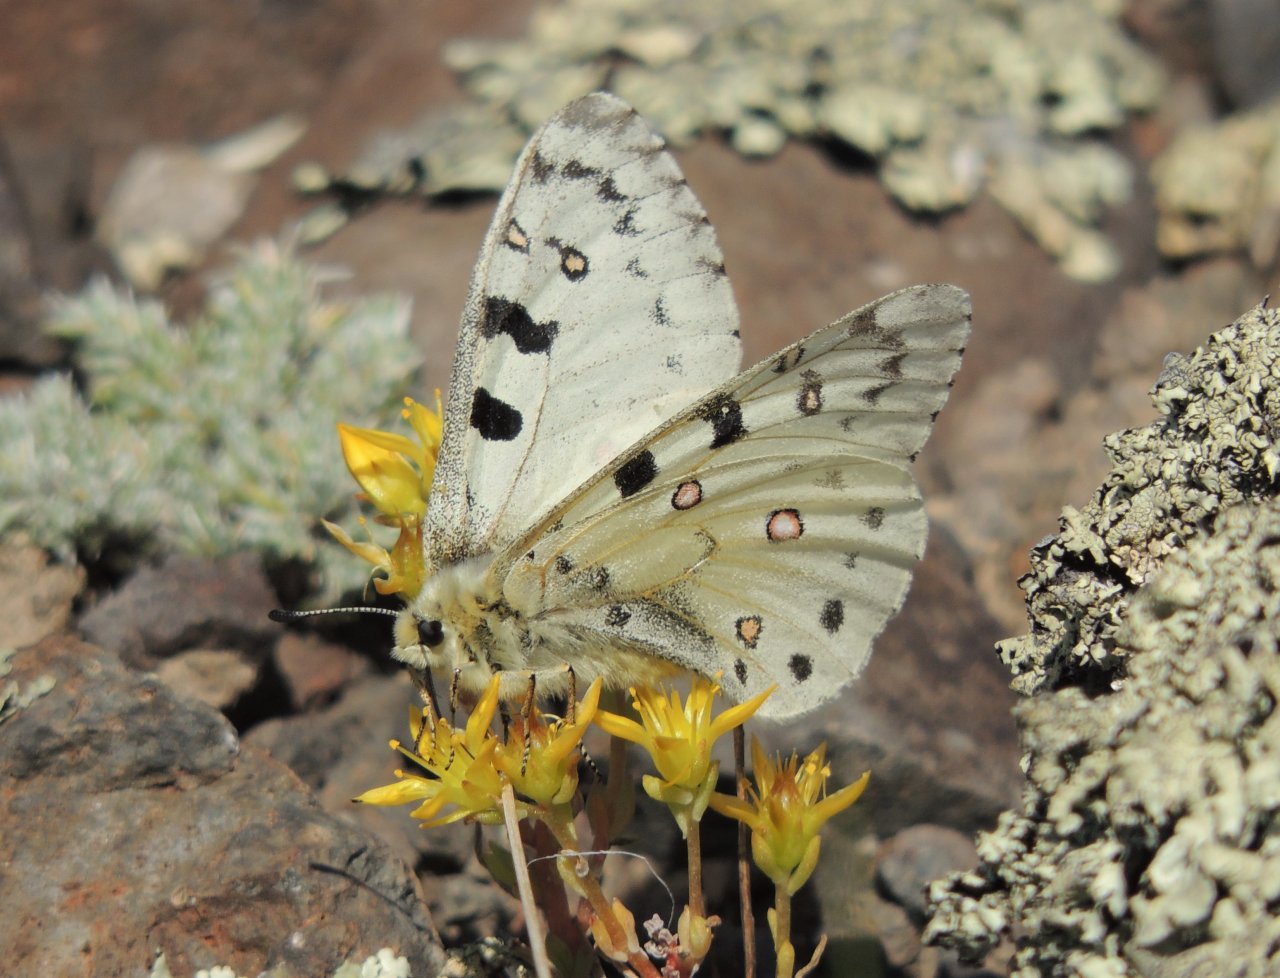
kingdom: Animalia
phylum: Arthropoda
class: Insecta
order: Lepidoptera
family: Papilionidae
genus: Parnassius
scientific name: Parnassius smintheus
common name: Rocky Mountain Parnassian
